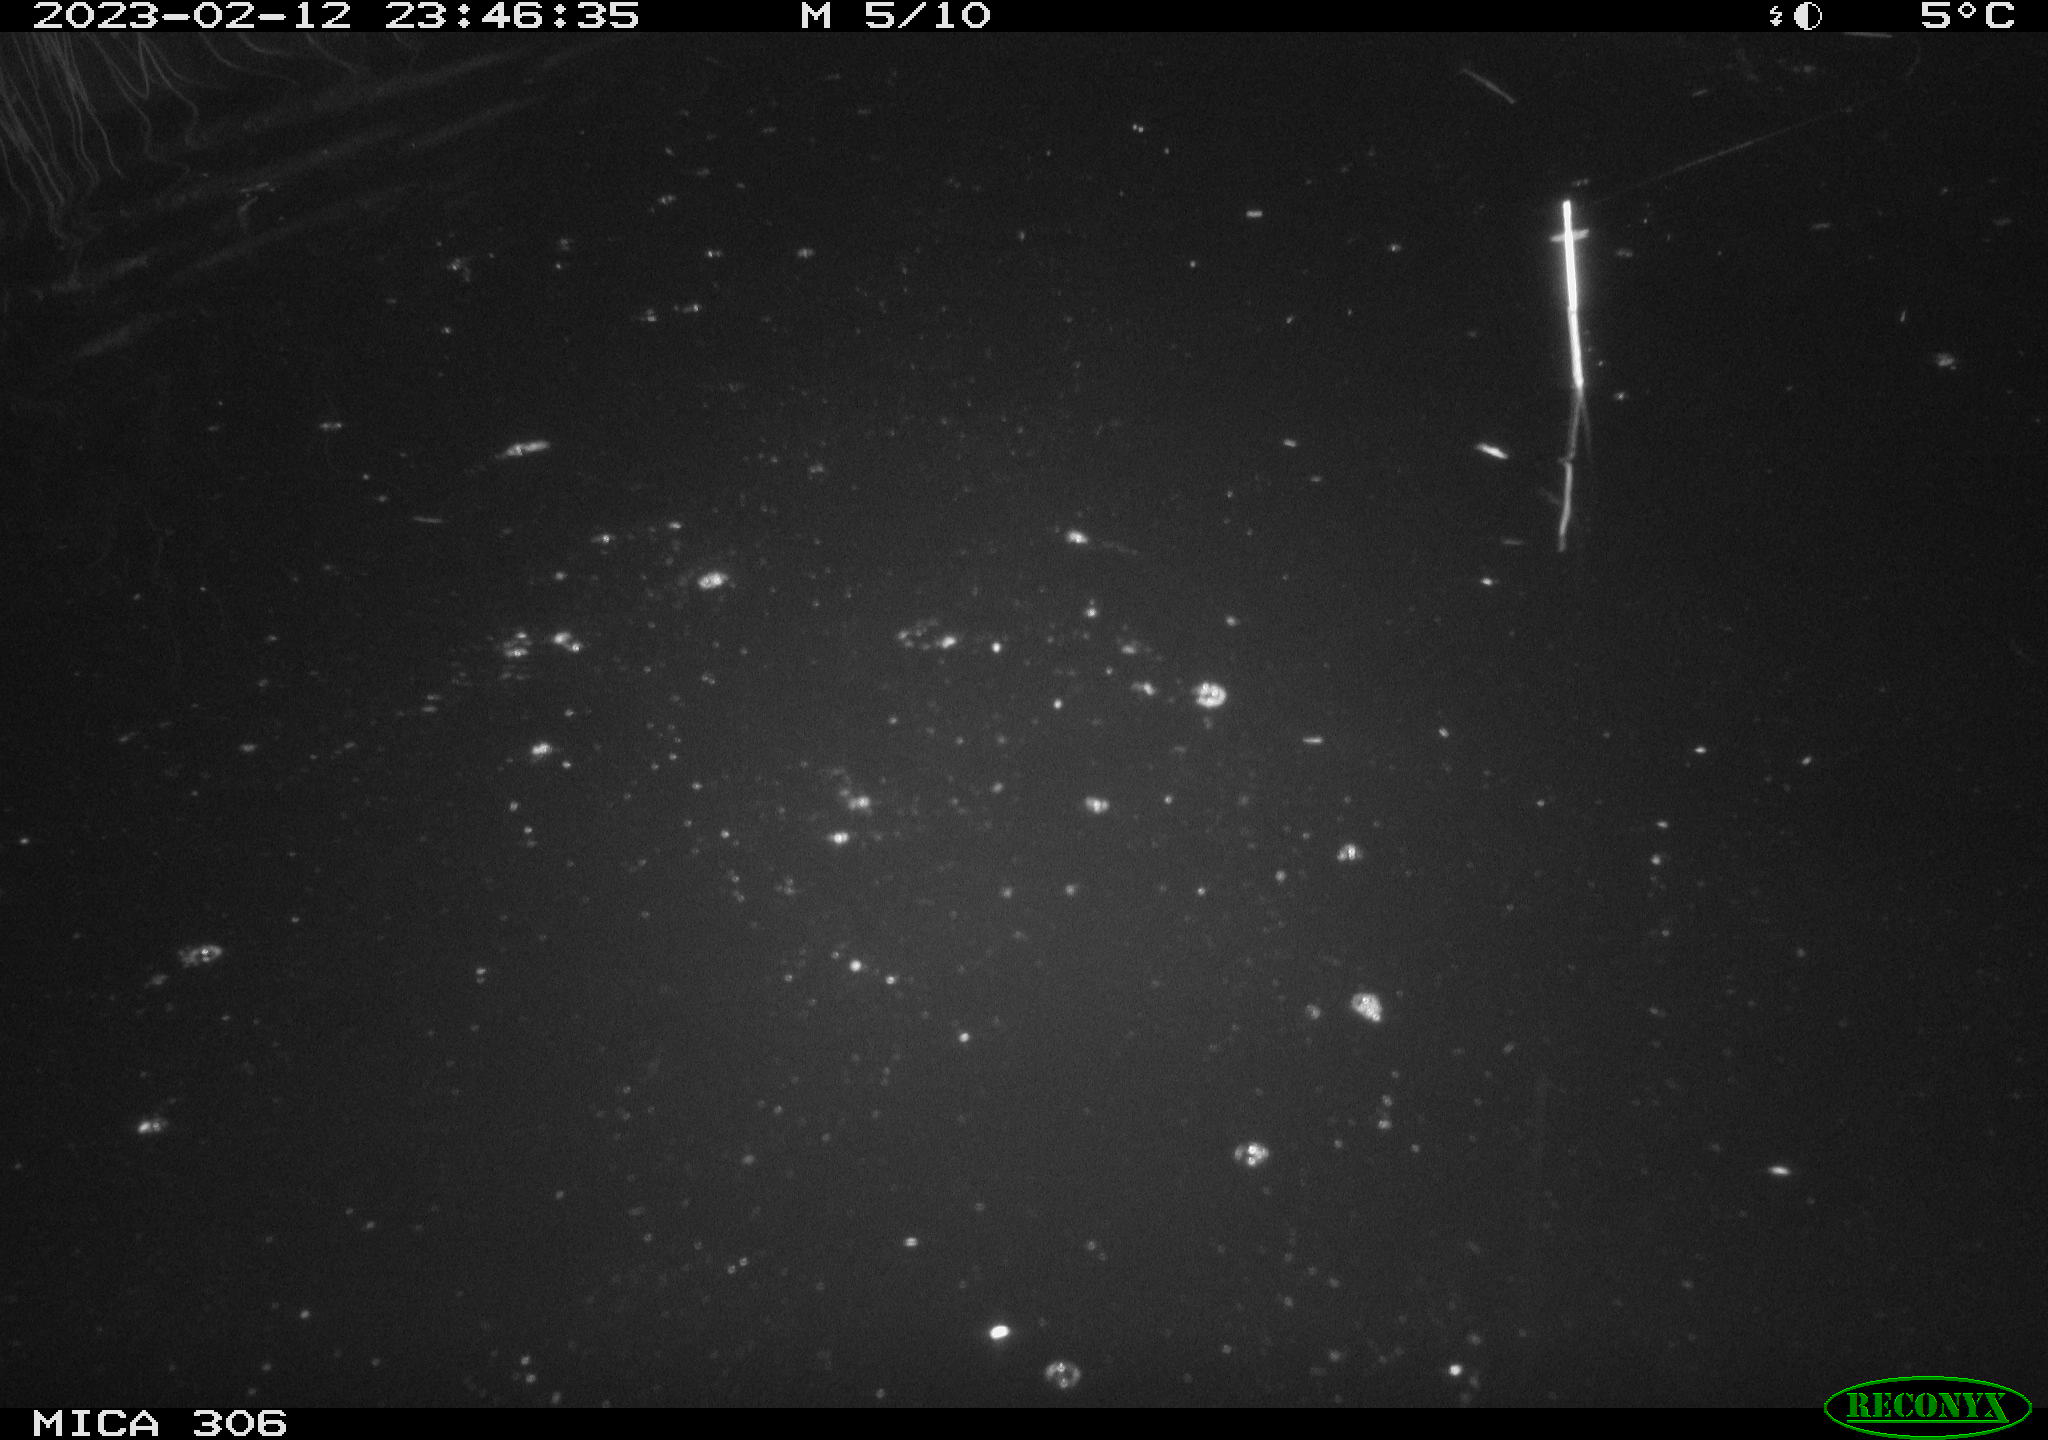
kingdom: Animalia
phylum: Chordata
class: Mammalia
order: Rodentia
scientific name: Rodentia
